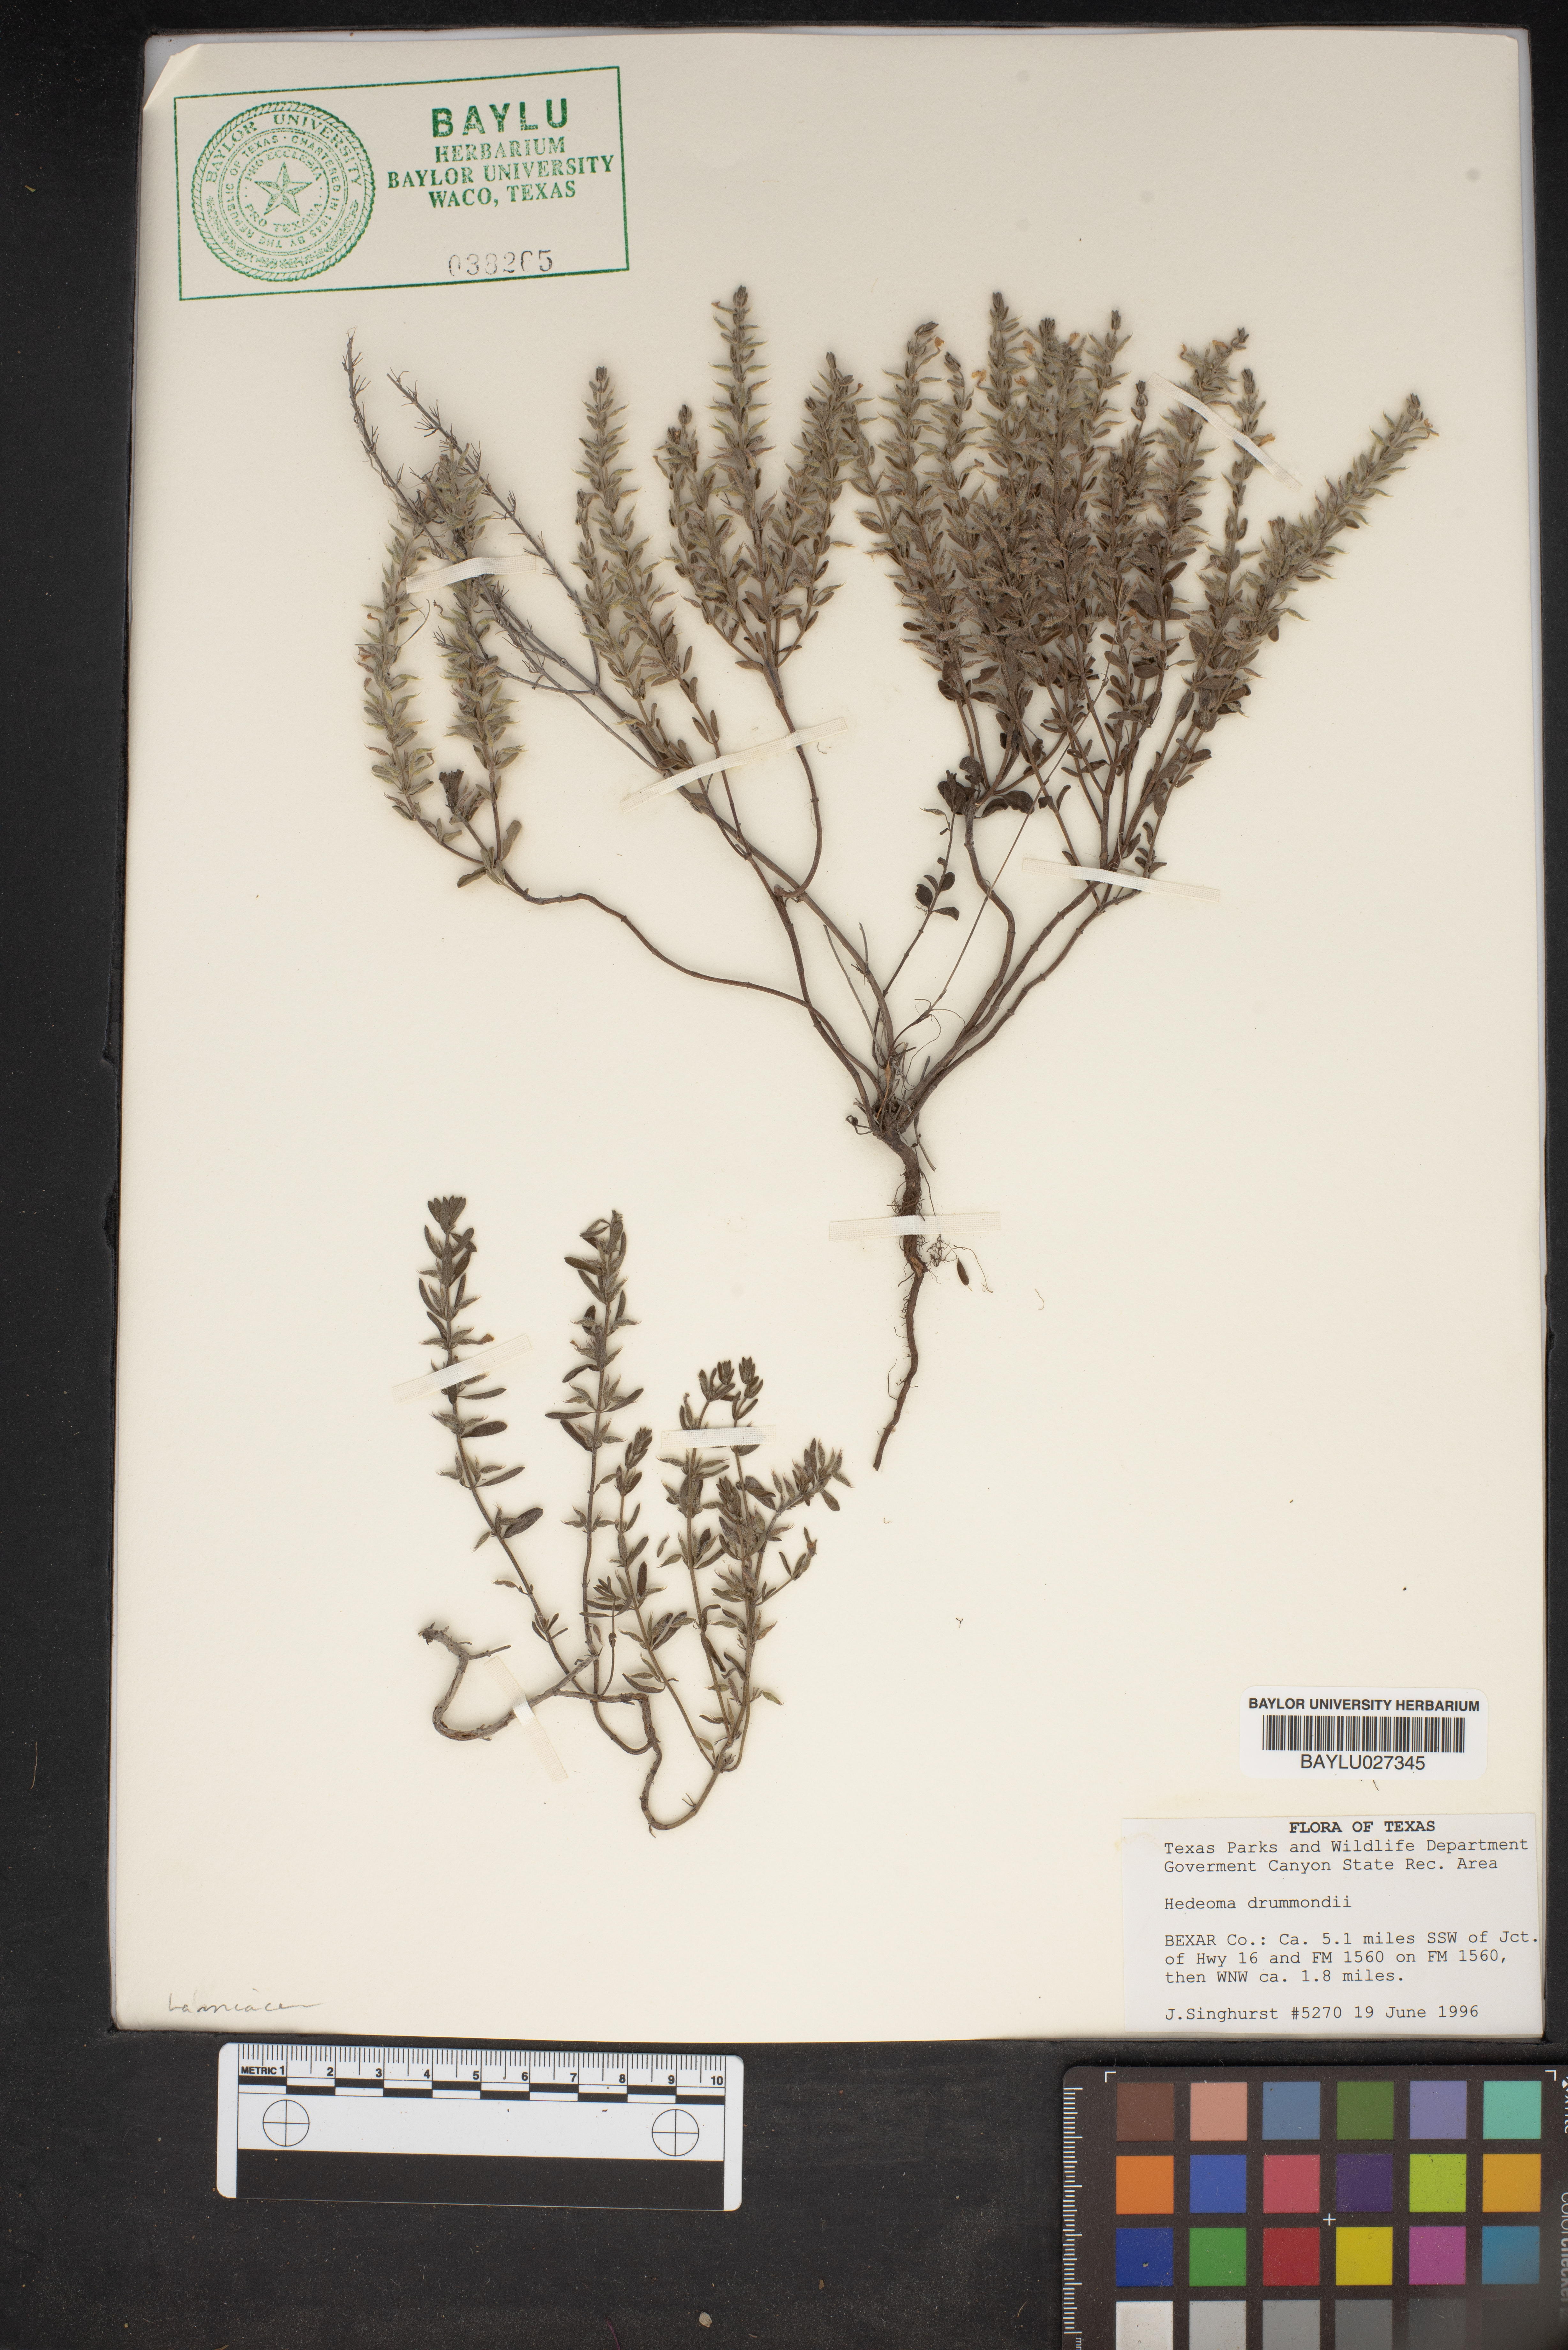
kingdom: Plantae
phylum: Tracheophyta
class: Magnoliopsida
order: Lamiales
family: Lamiaceae
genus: Hedeoma
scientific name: Hedeoma drummondii
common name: New mexico pennyroyal
